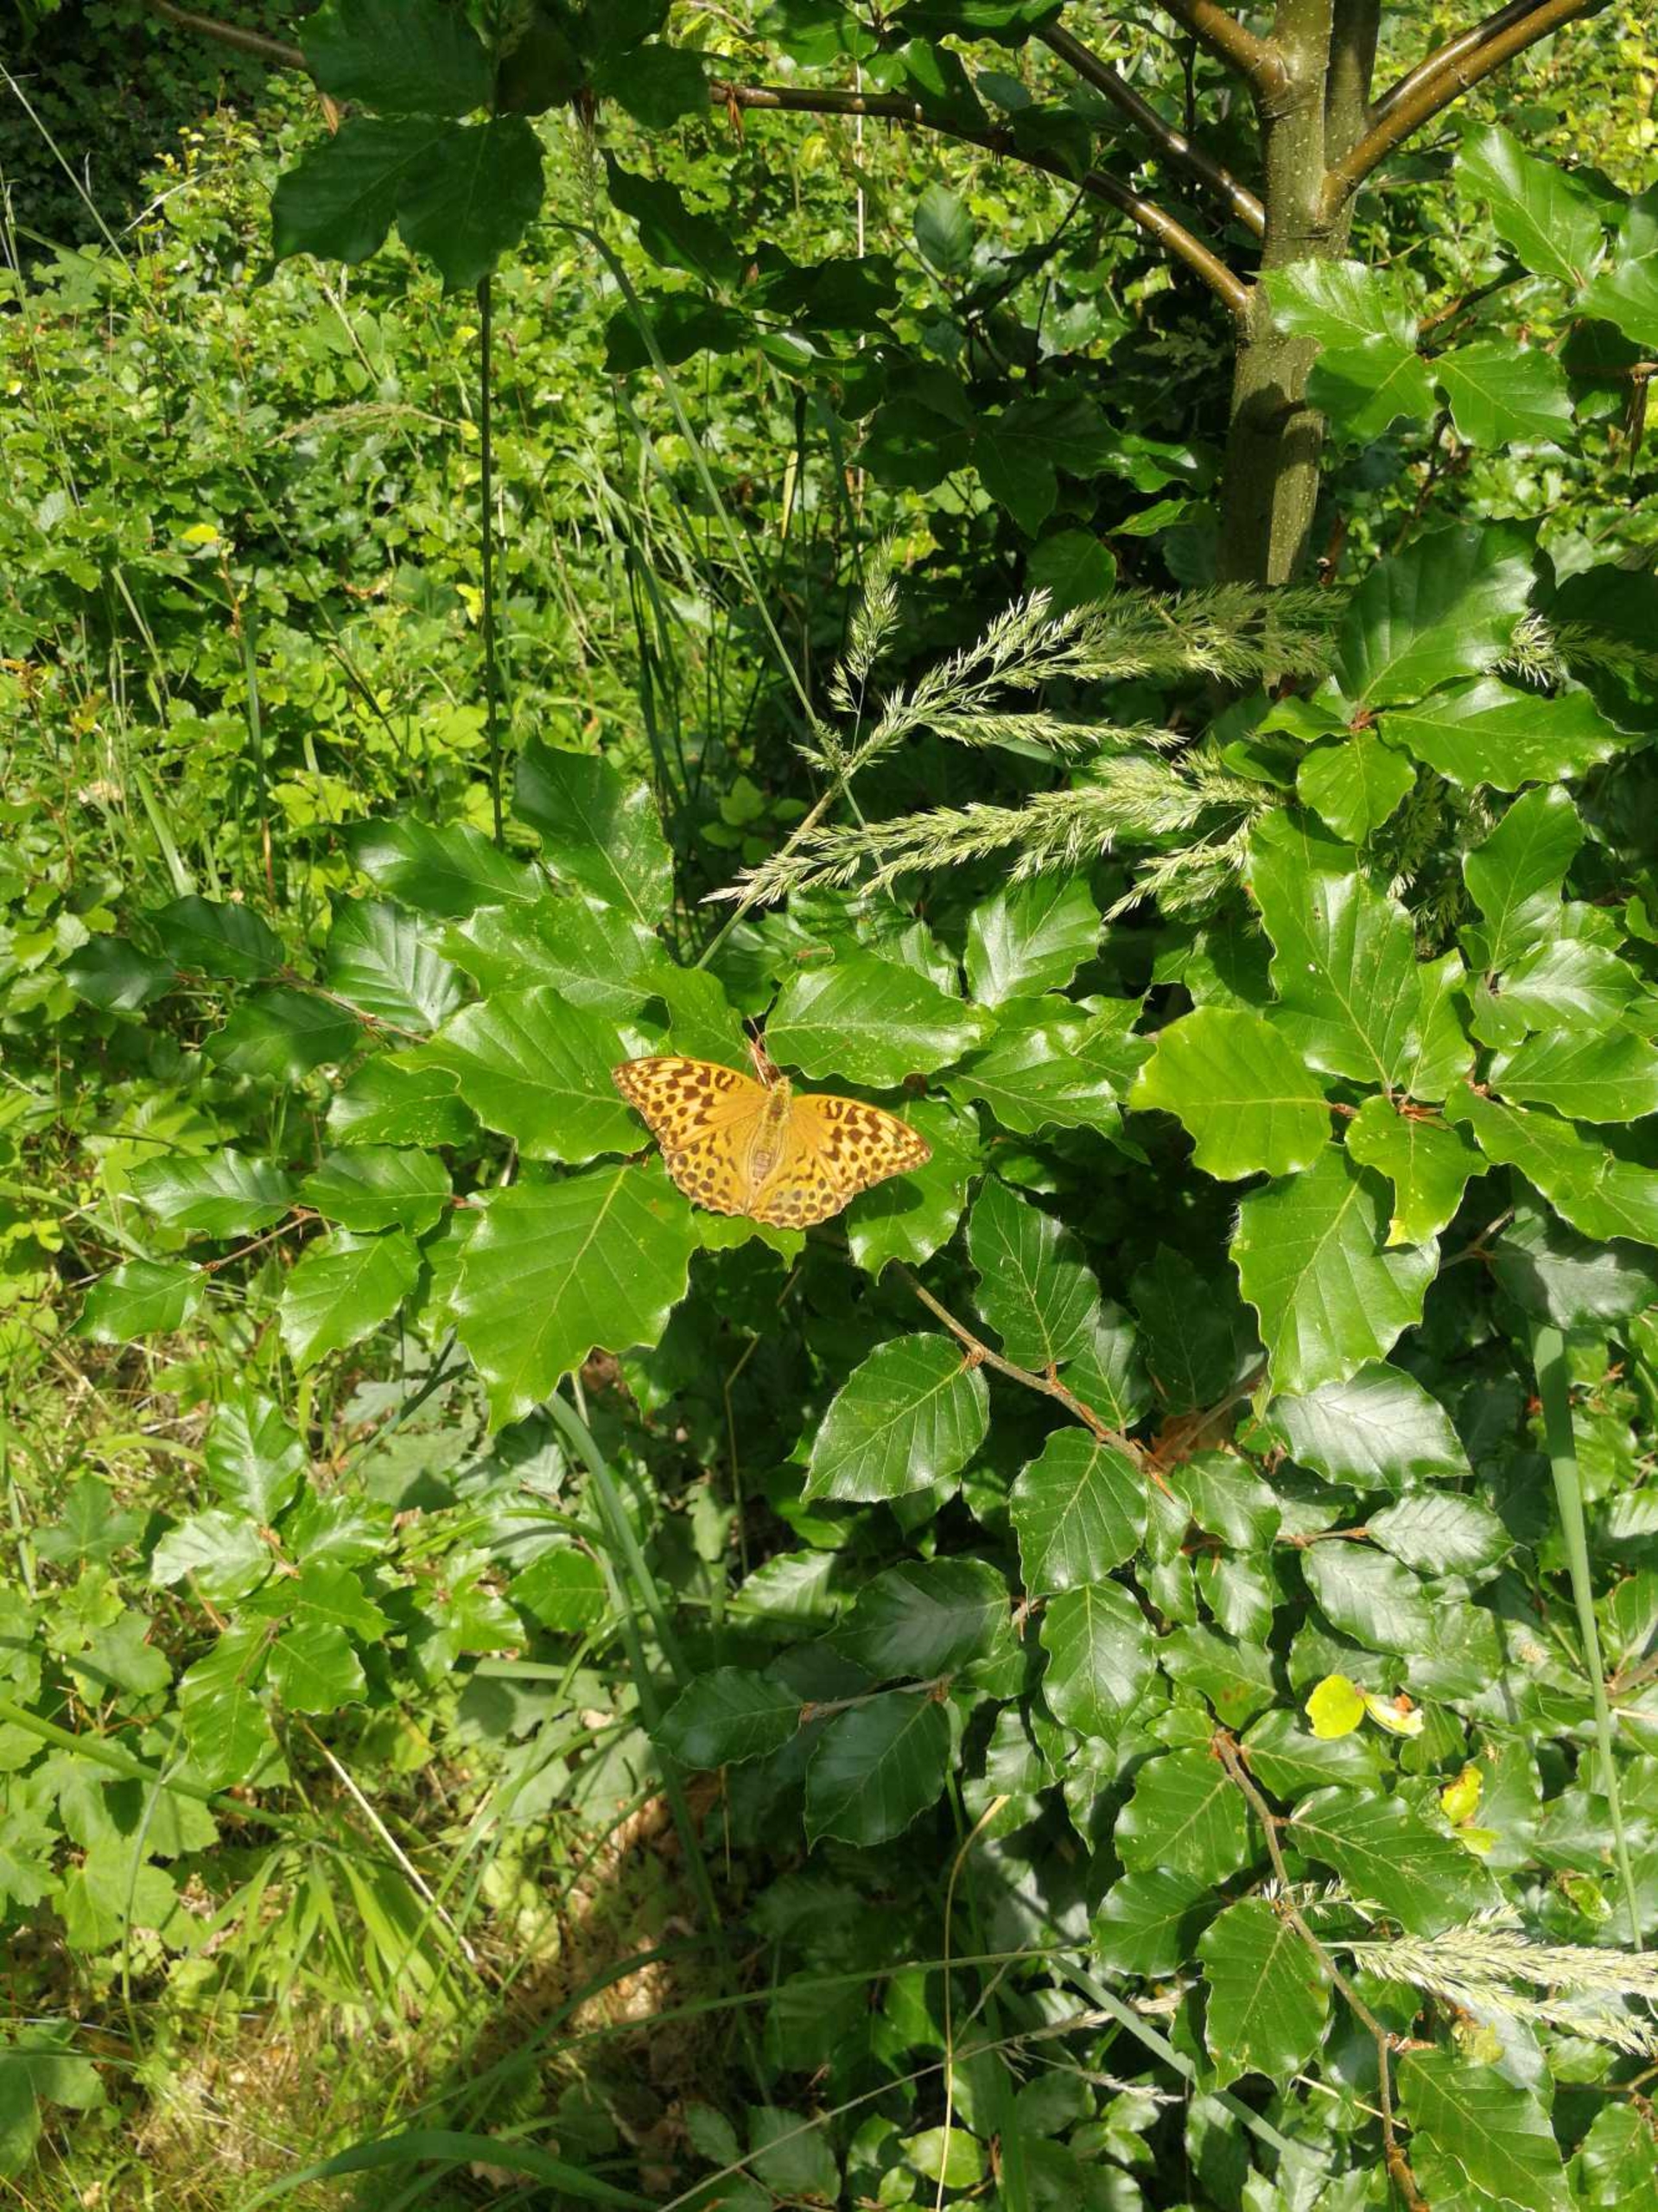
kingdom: Animalia
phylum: Arthropoda
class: Insecta
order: Lepidoptera
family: Nymphalidae
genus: Argynnis
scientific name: Argynnis paphia
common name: Kejserkåbe
